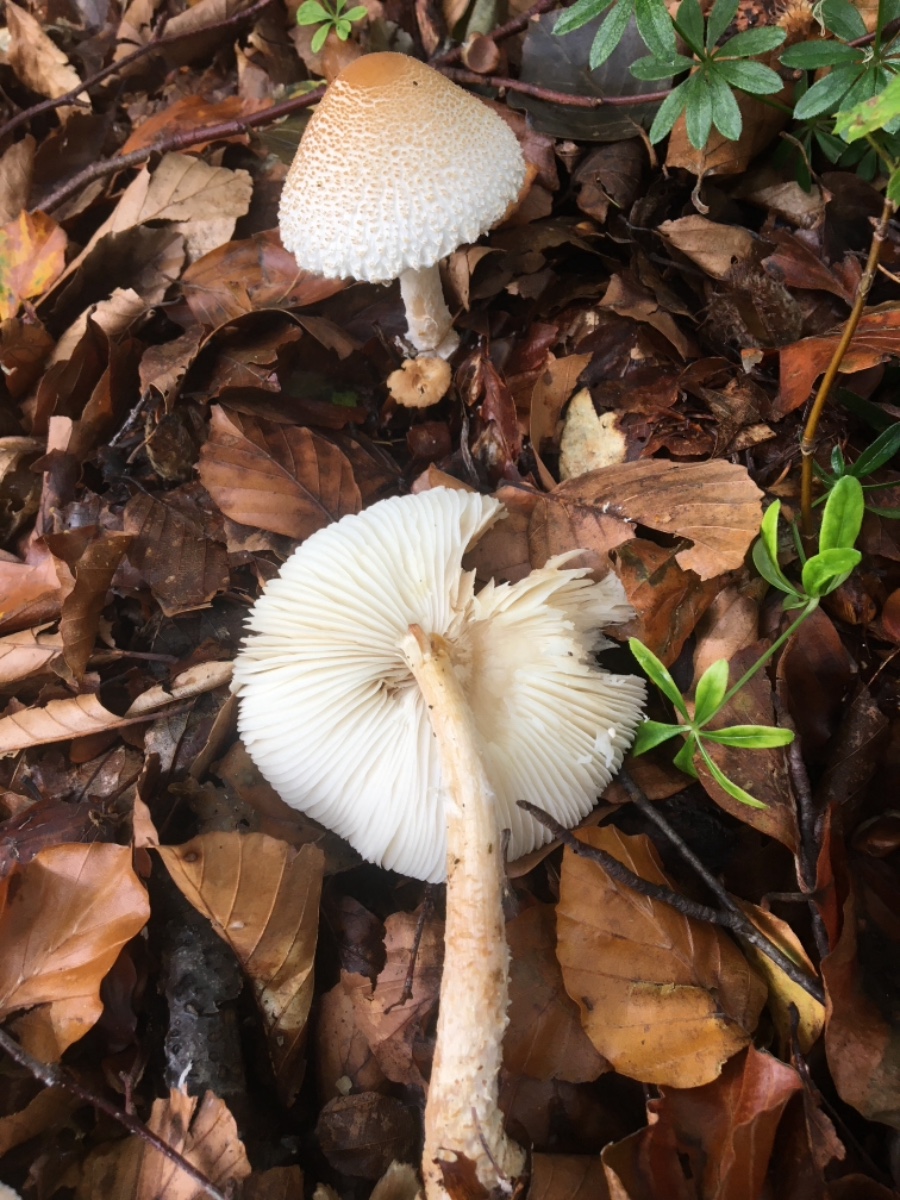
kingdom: Fungi
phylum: Basidiomycota
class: Agaricomycetes
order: Agaricales
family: Agaricaceae
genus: Lepiota
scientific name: Lepiota magnispora
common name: gulfnugget parasolhat
